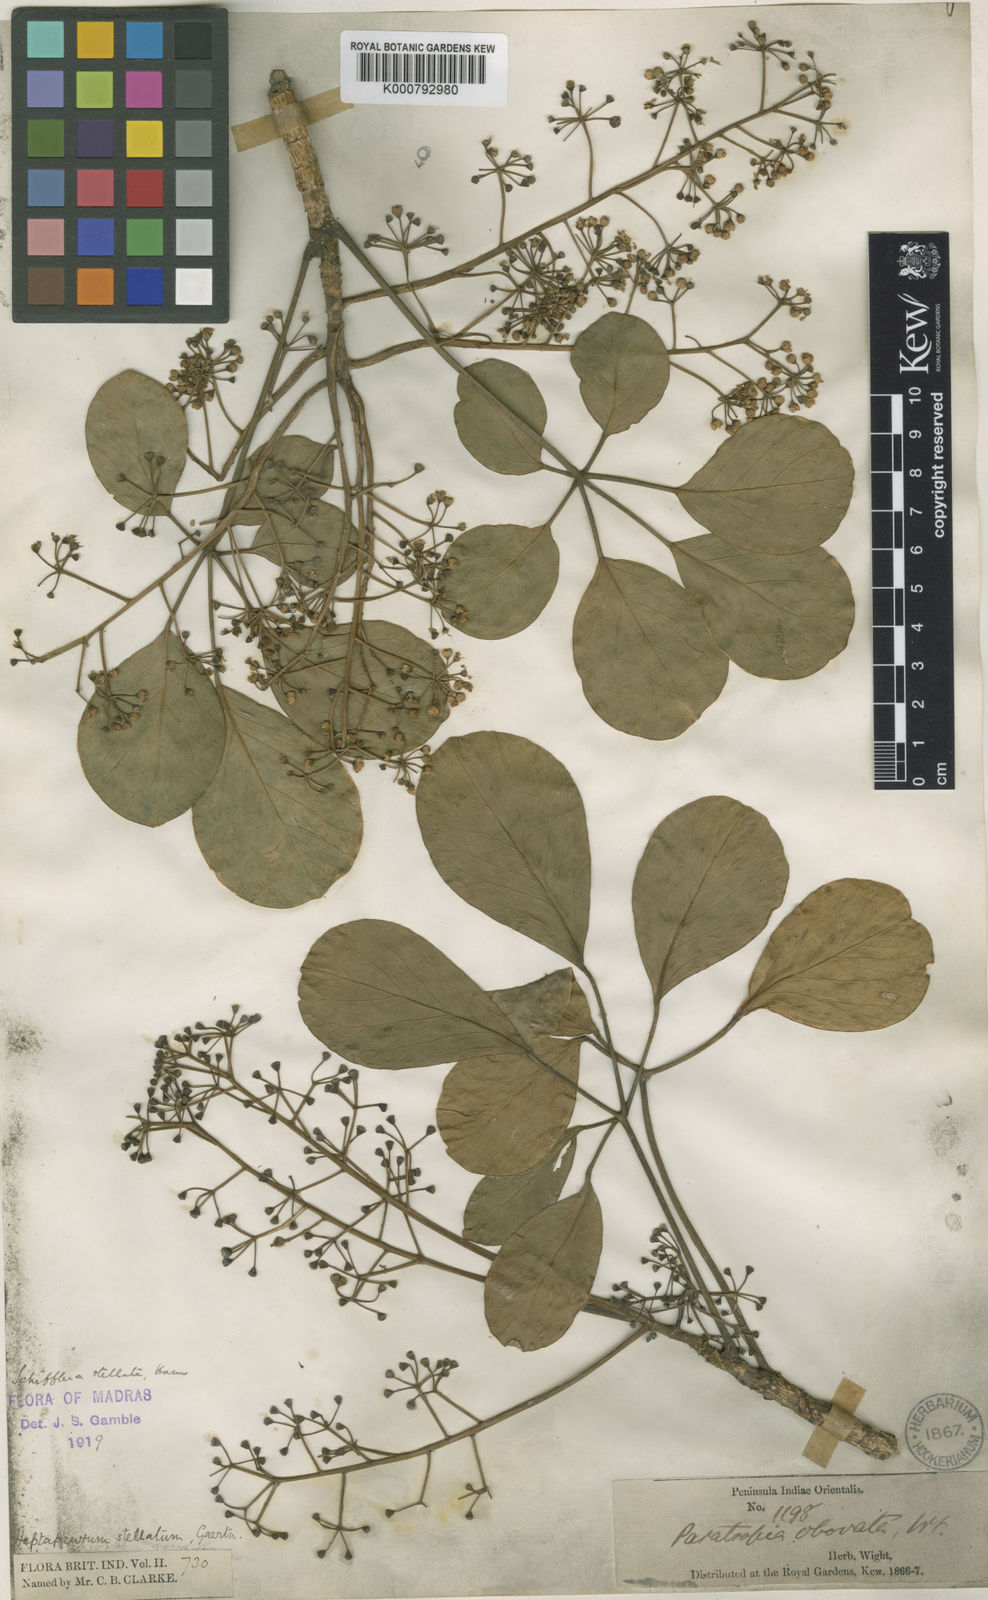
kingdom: Plantae
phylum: Tracheophyta
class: Magnoliopsida
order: Apiales
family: Araliaceae
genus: Schefflera
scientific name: Schefflera
